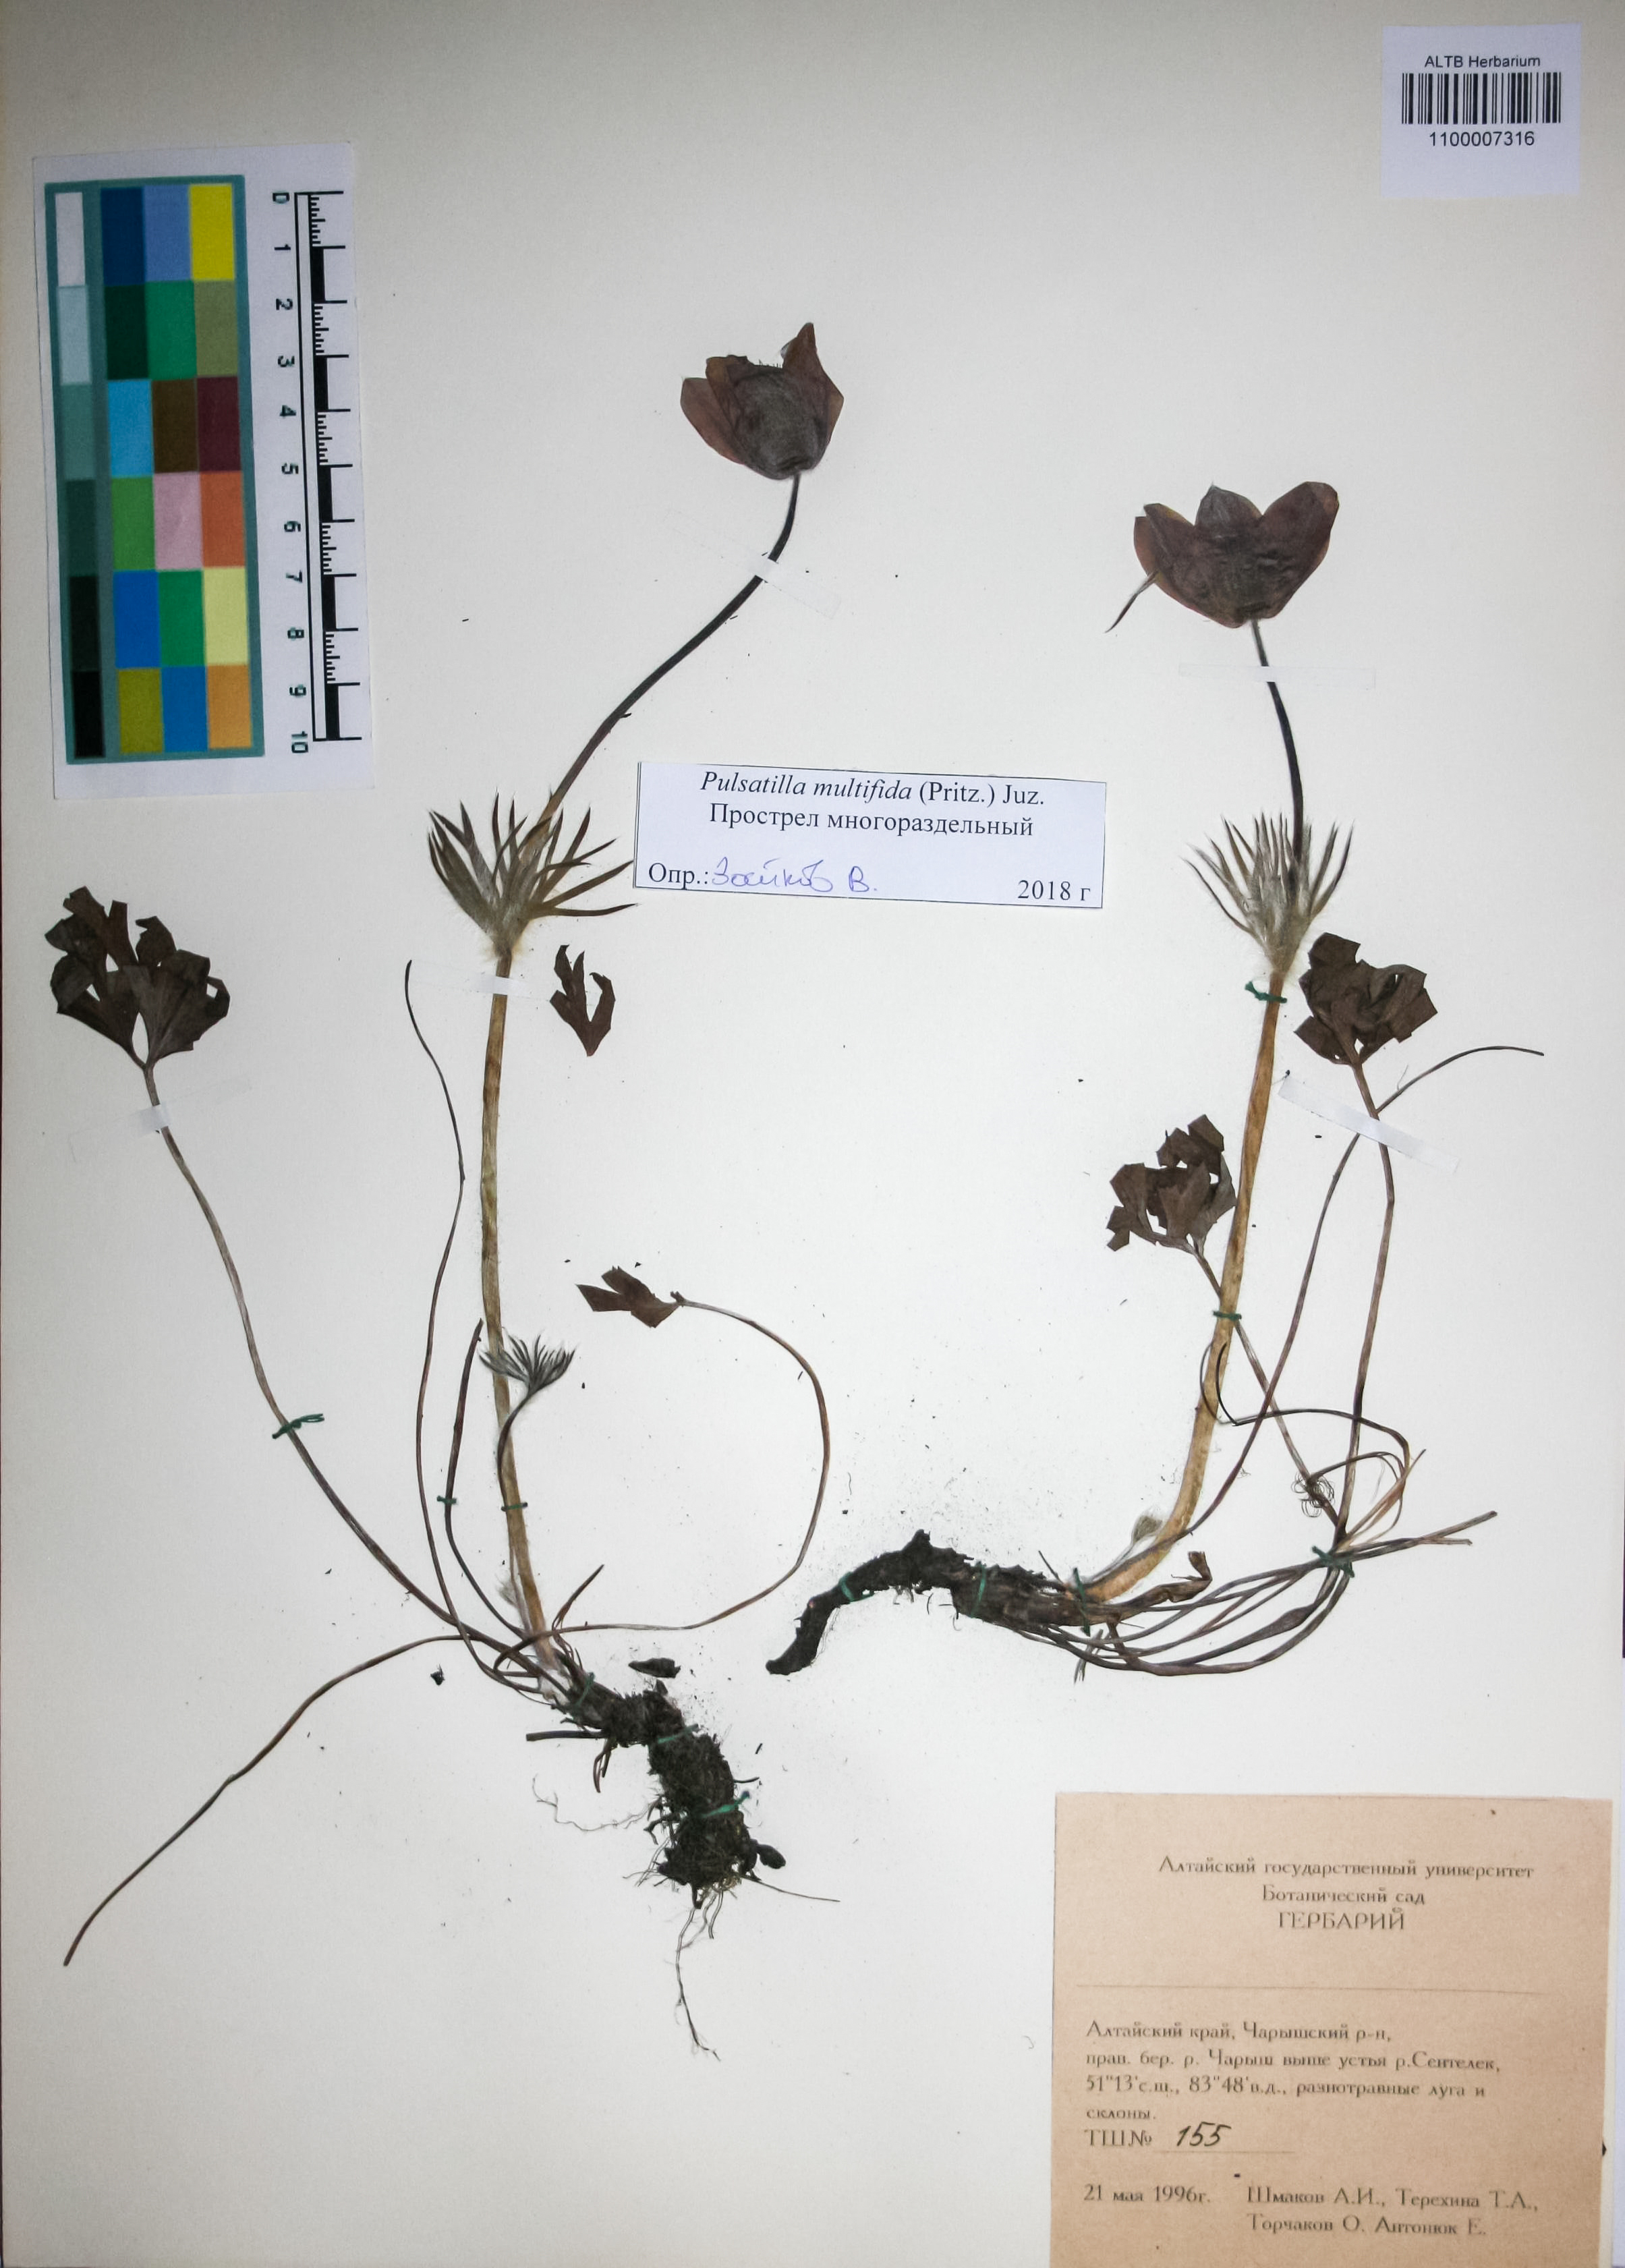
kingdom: Plantae
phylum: Tracheophyta
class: Magnoliopsida
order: Ranunculales
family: Ranunculaceae
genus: Pulsatilla
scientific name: Pulsatilla patens
